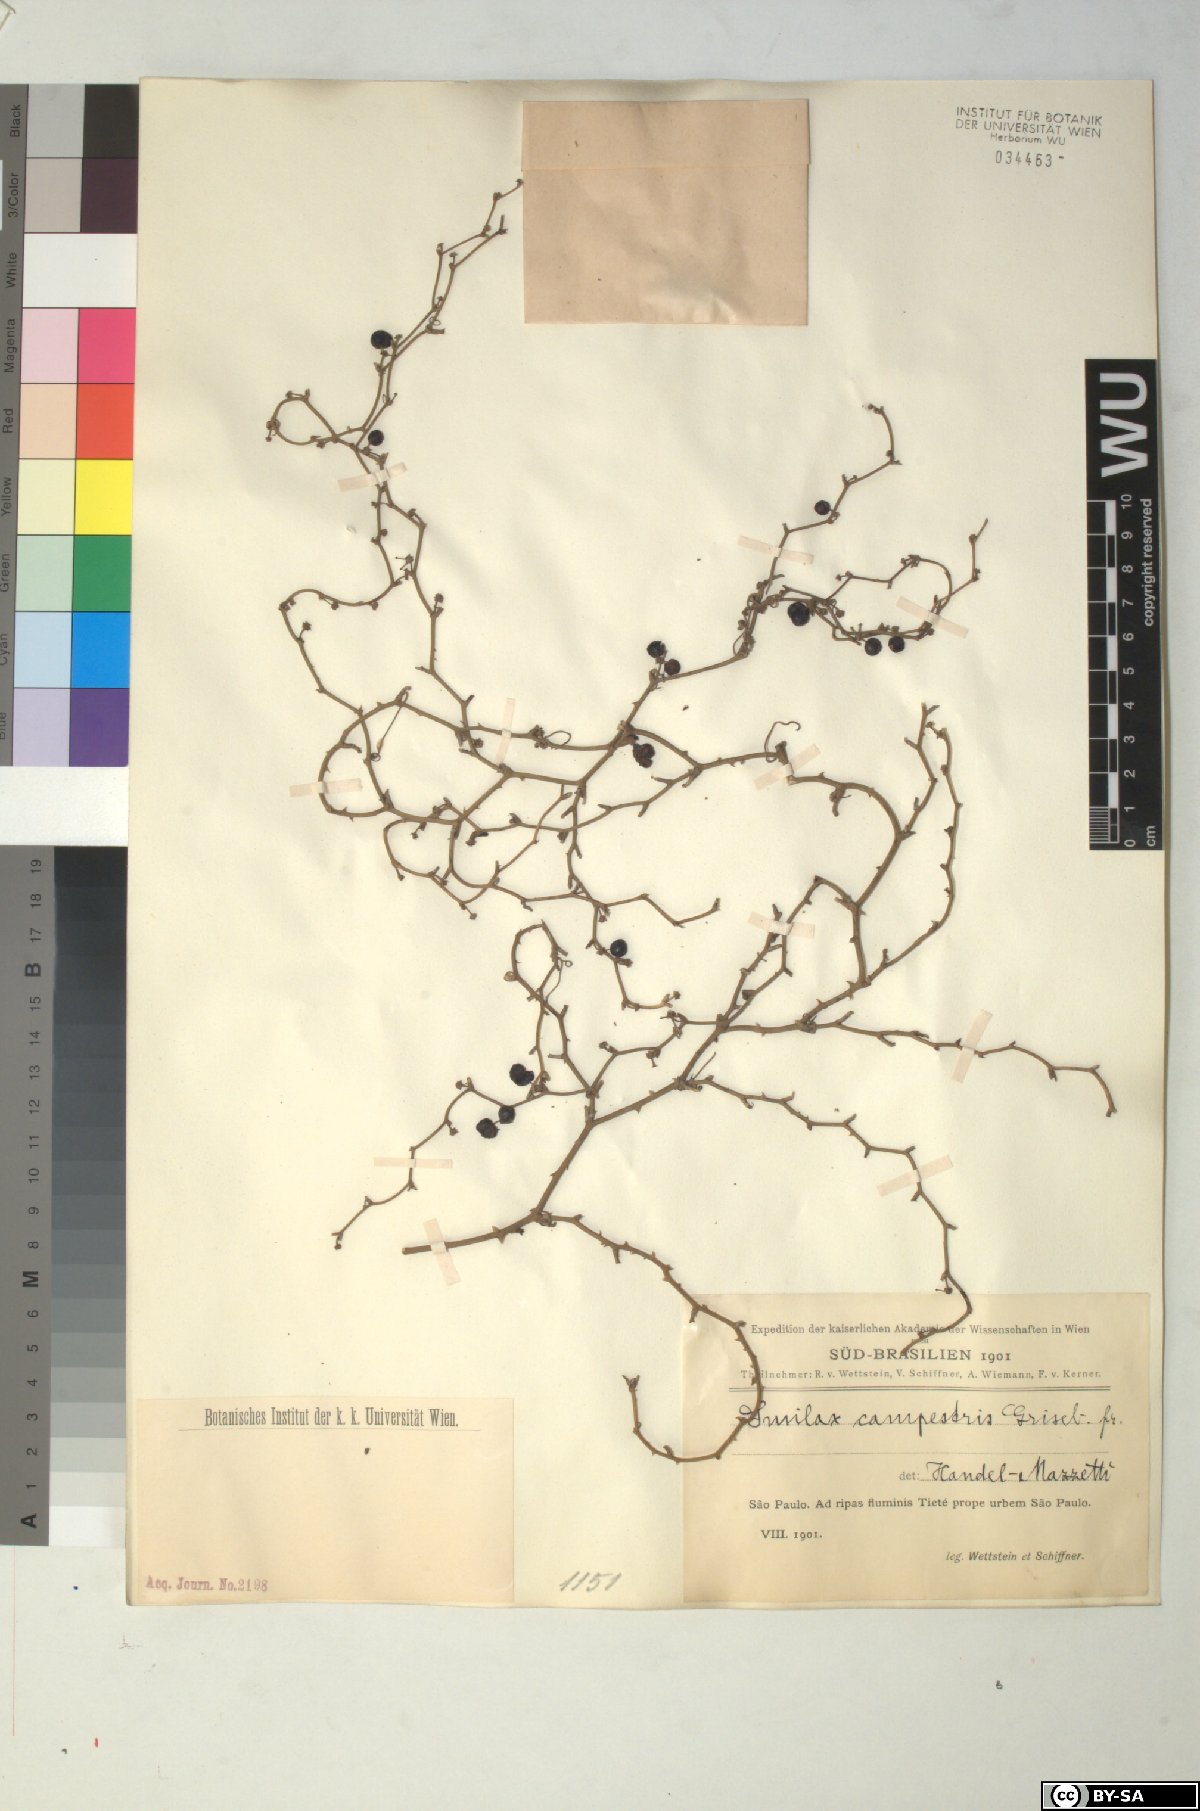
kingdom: Plantae
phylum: Tracheophyta
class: Liliopsida
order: Liliales
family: Smilacaceae
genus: Smilax
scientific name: Smilax campestris
